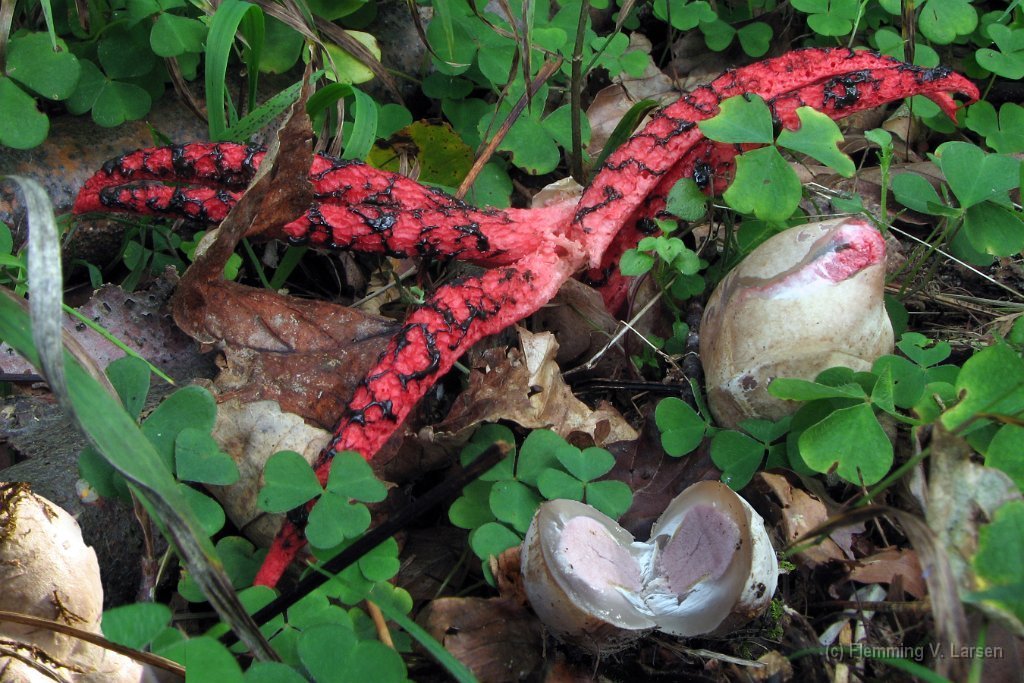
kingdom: Fungi
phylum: Basidiomycota
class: Agaricomycetes
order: Phallales
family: Phallaceae
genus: Clathrus
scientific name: Clathrus archeri
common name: blækspruttesvamp
